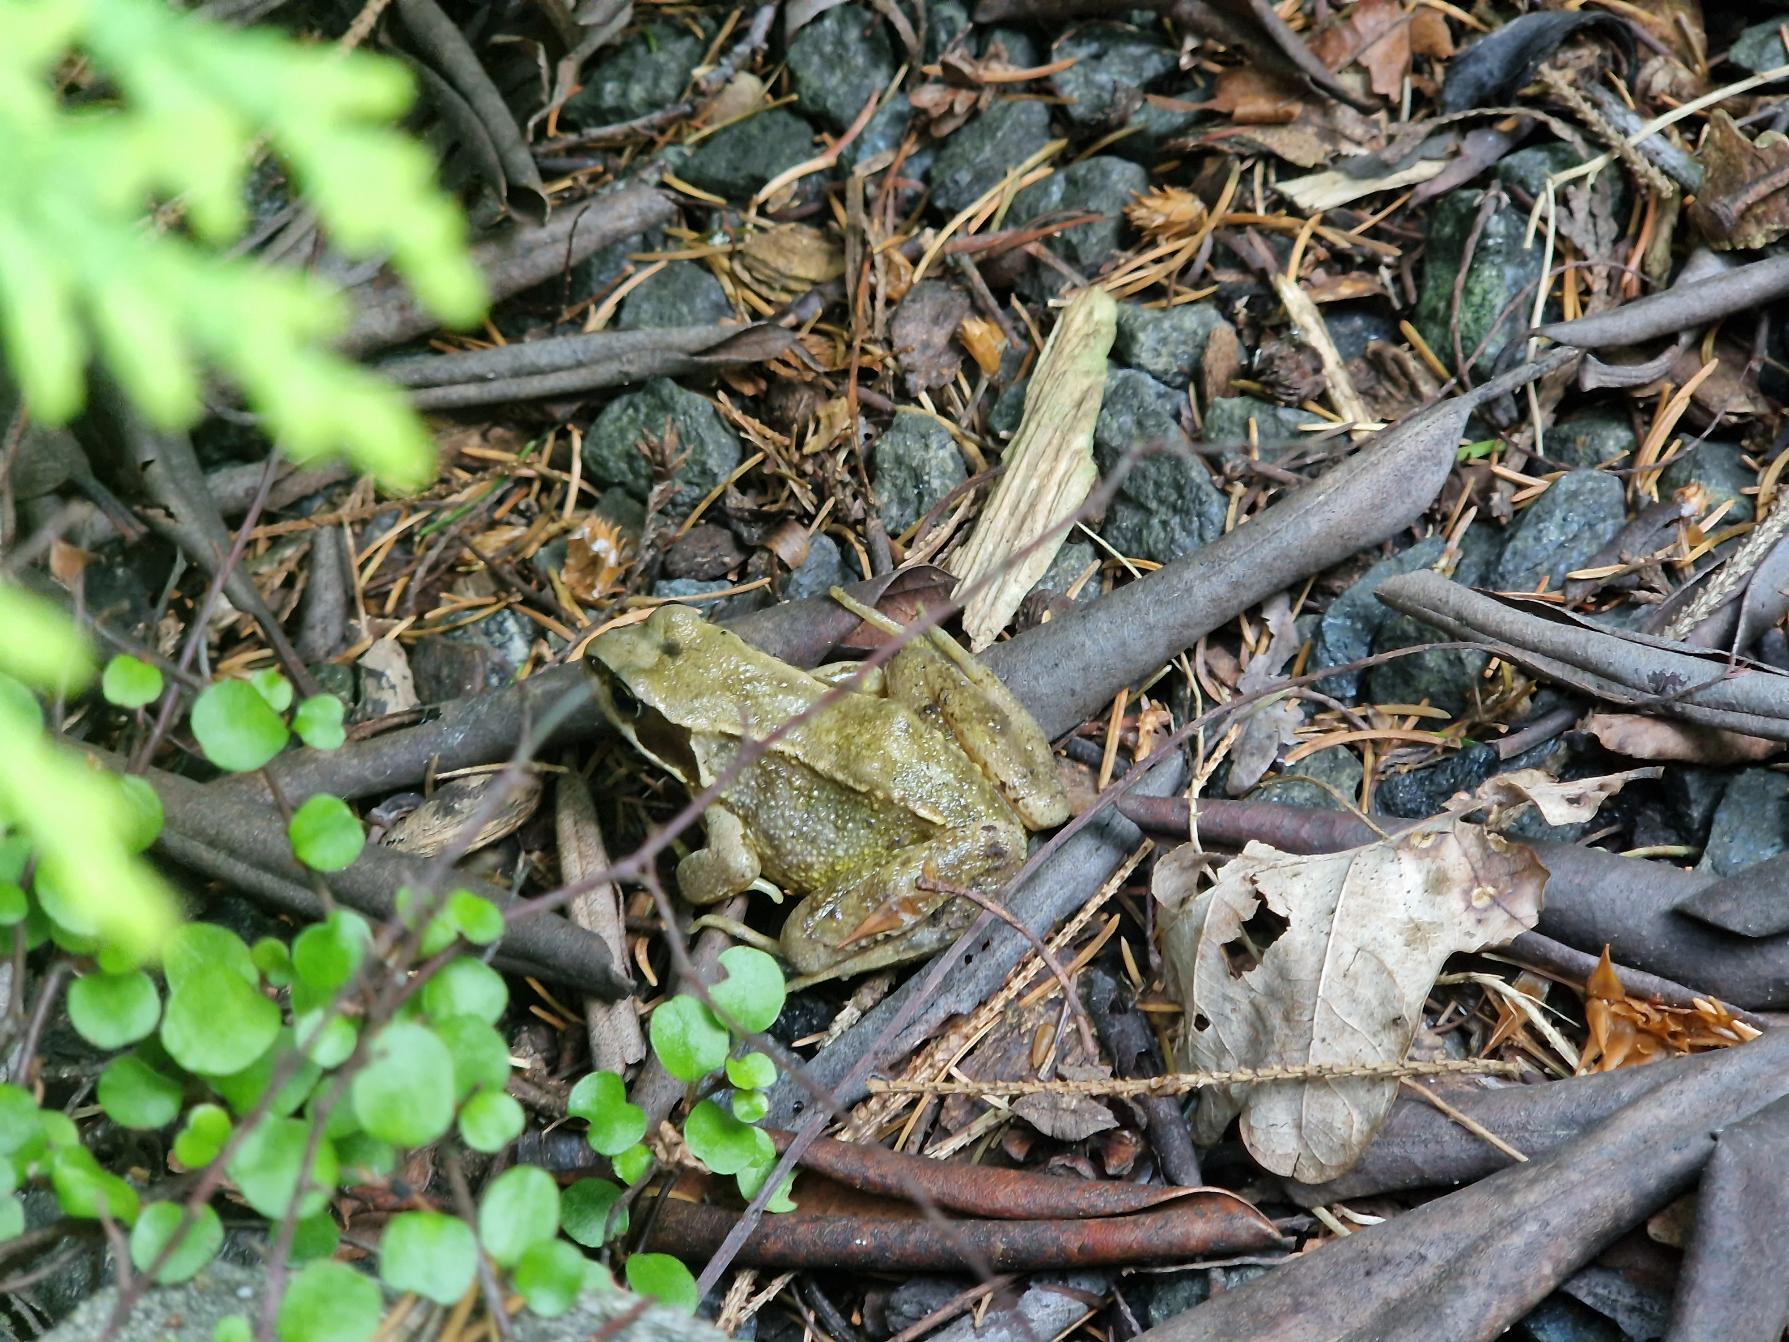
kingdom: Animalia
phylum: Chordata
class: Amphibia
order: Anura
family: Ranidae
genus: Rana
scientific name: Rana temporaria
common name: Butsnudet frø
